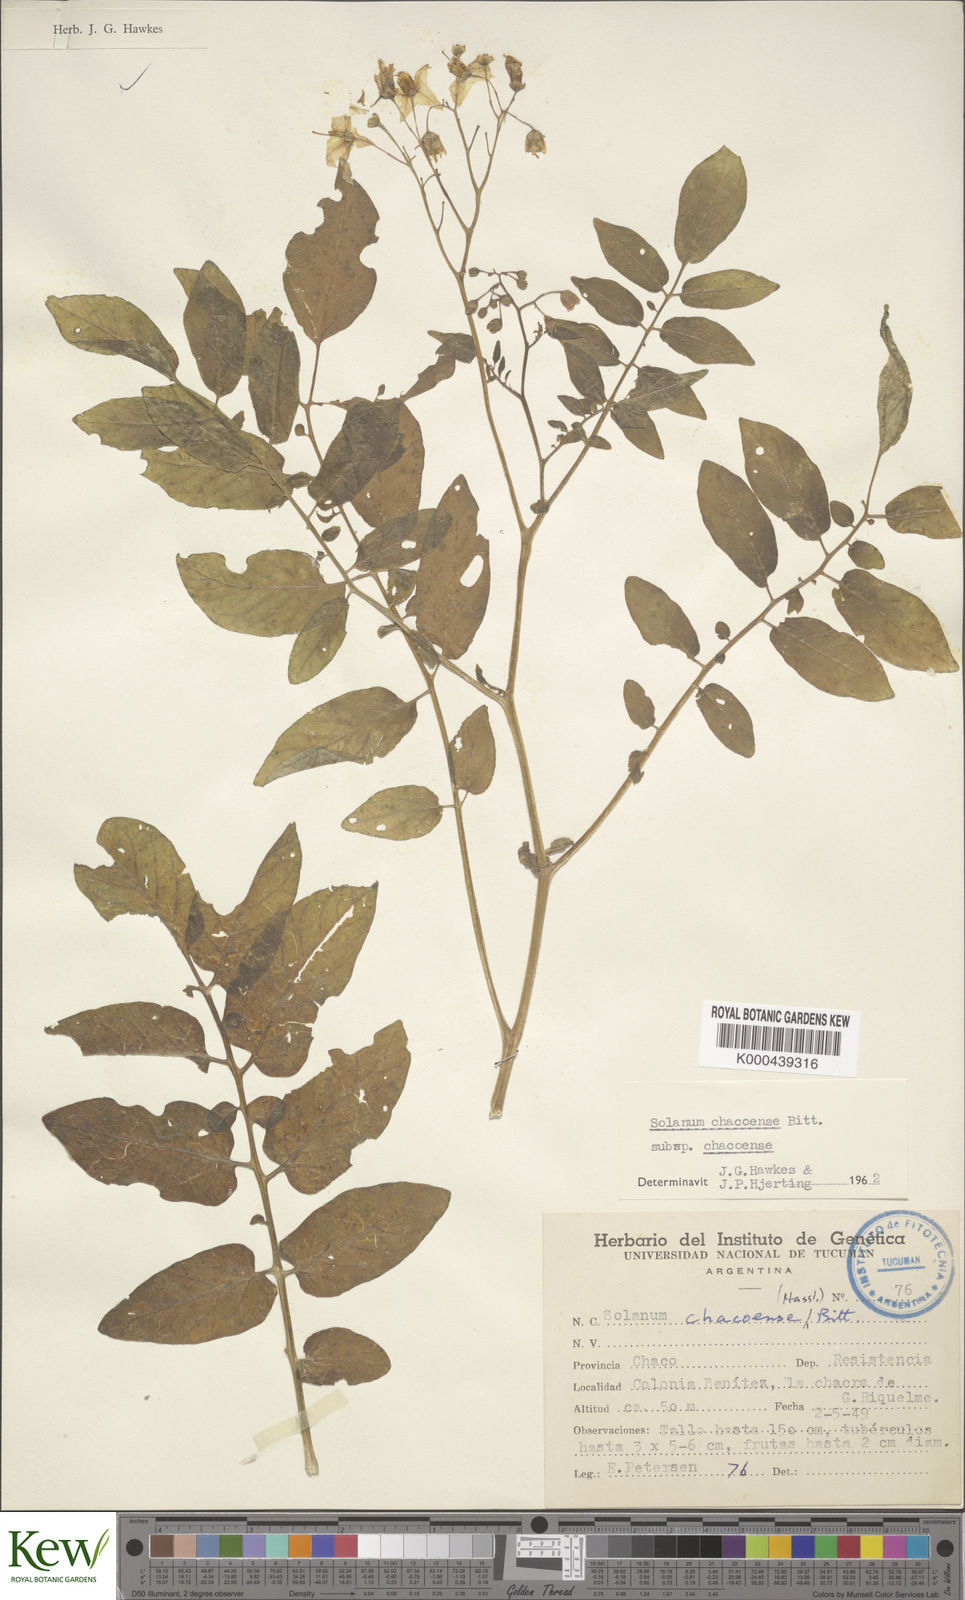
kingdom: Plantae
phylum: Tracheophyta
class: Magnoliopsida
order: Solanales
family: Solanaceae
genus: Solanum
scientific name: Solanum chacoense
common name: Chaco potato
